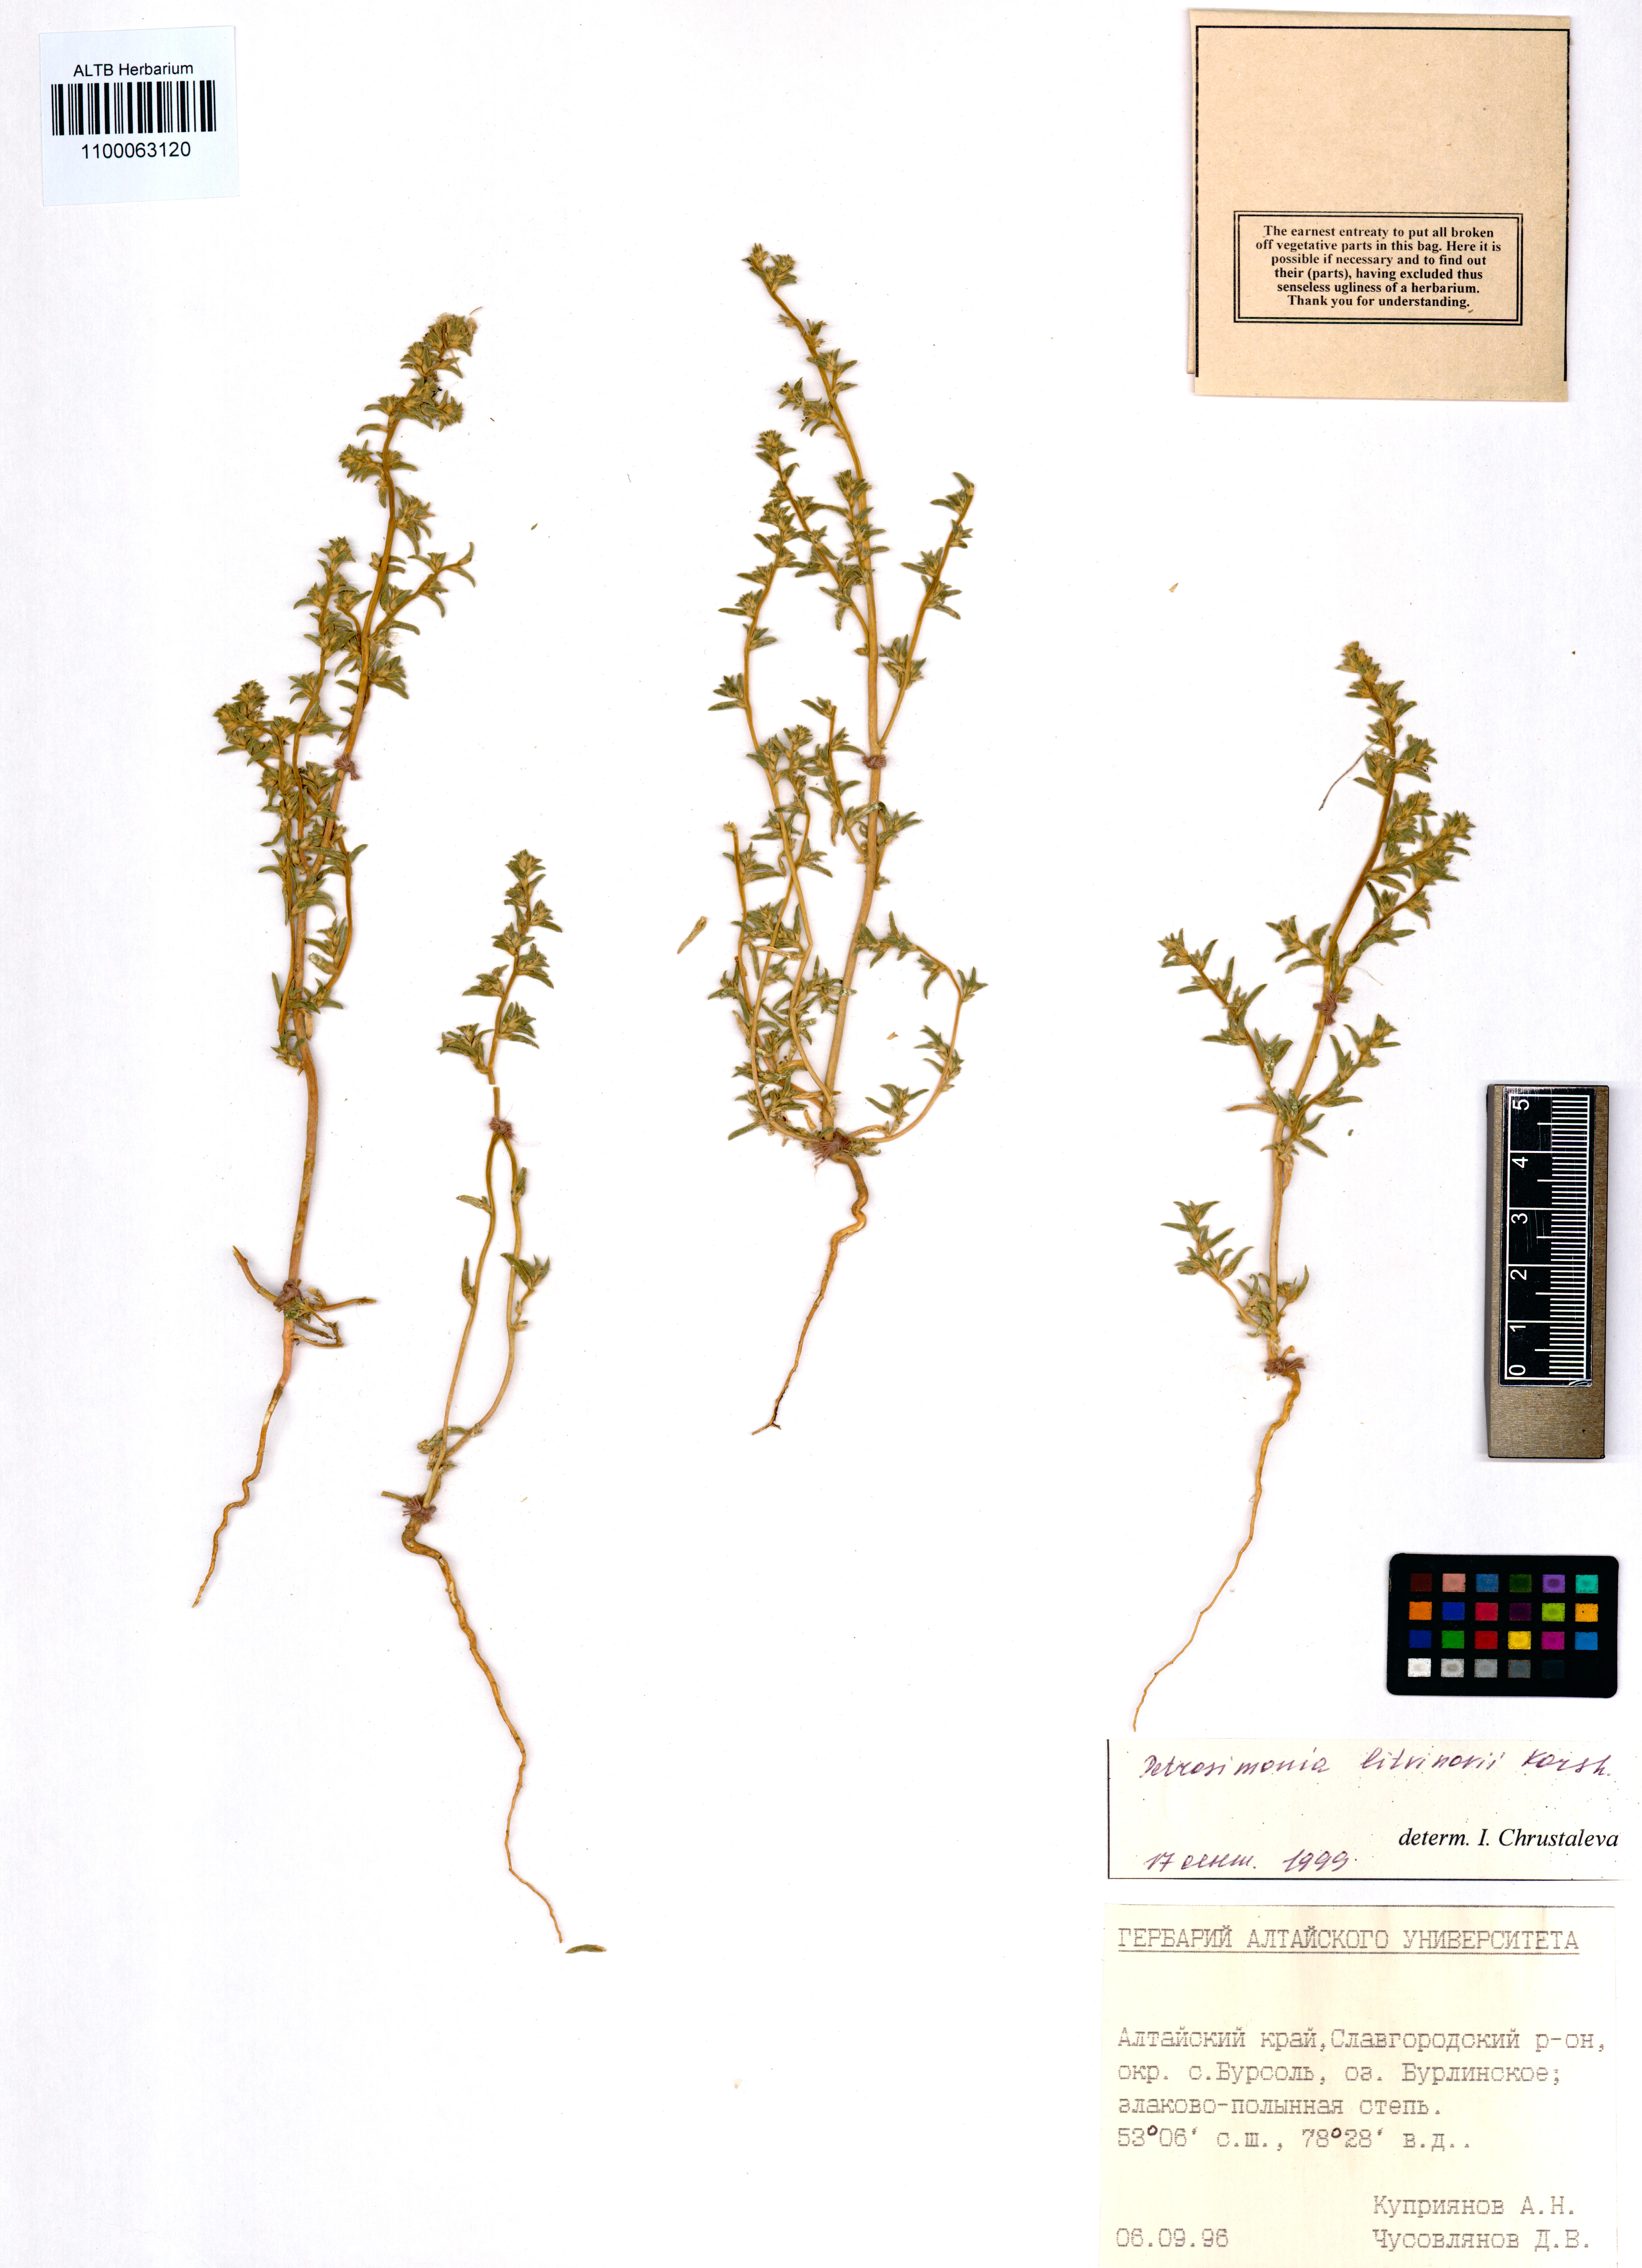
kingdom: Plantae
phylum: Tracheophyta
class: Magnoliopsida
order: Caryophyllales
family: Amaranthaceae
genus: Petrosimonia
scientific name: Petrosimonia litvinowi
